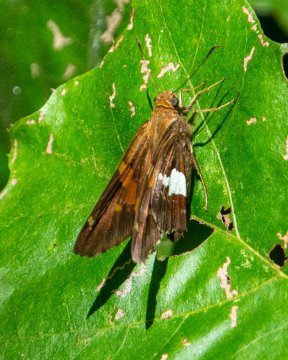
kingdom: Animalia
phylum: Arthropoda
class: Insecta
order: Lepidoptera
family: Hesperiidae
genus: Epargyreus
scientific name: Epargyreus clarus
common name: Silver-spotted Skipper
